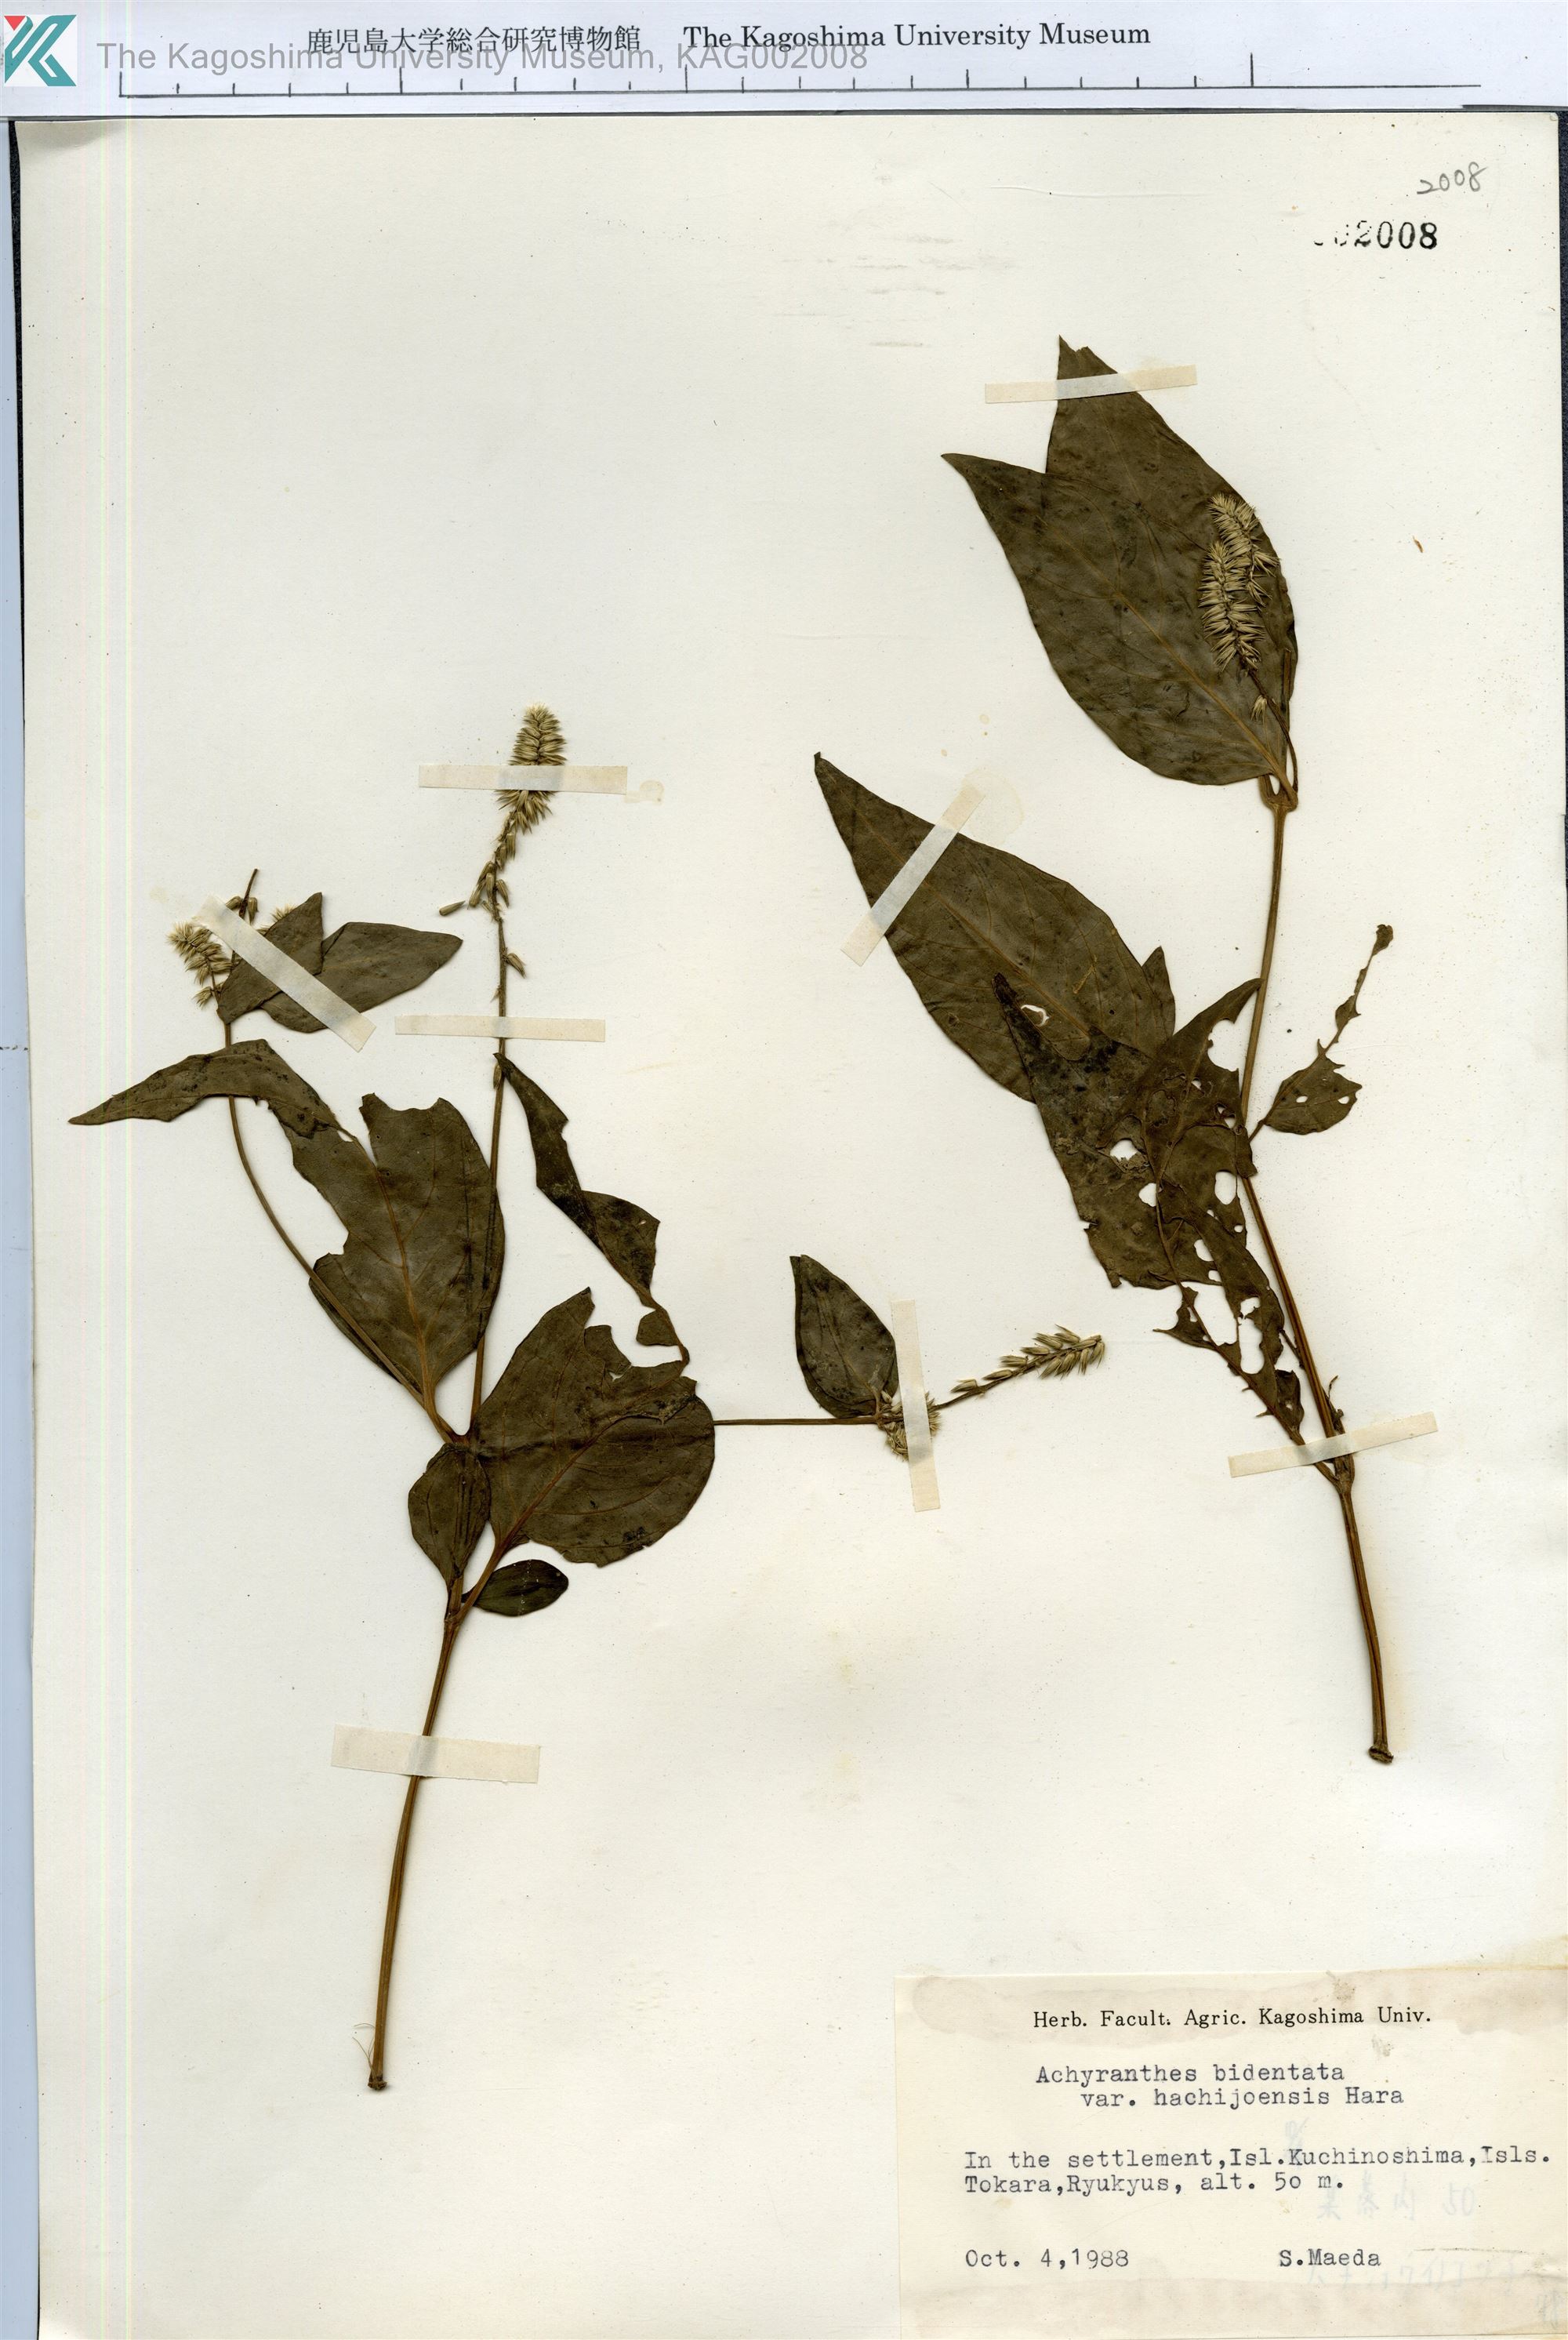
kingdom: Plantae
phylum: Tracheophyta
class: Magnoliopsida
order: Caryophyllales
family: Amaranthaceae
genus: Achyranthes
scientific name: Achyranthes bidentata
